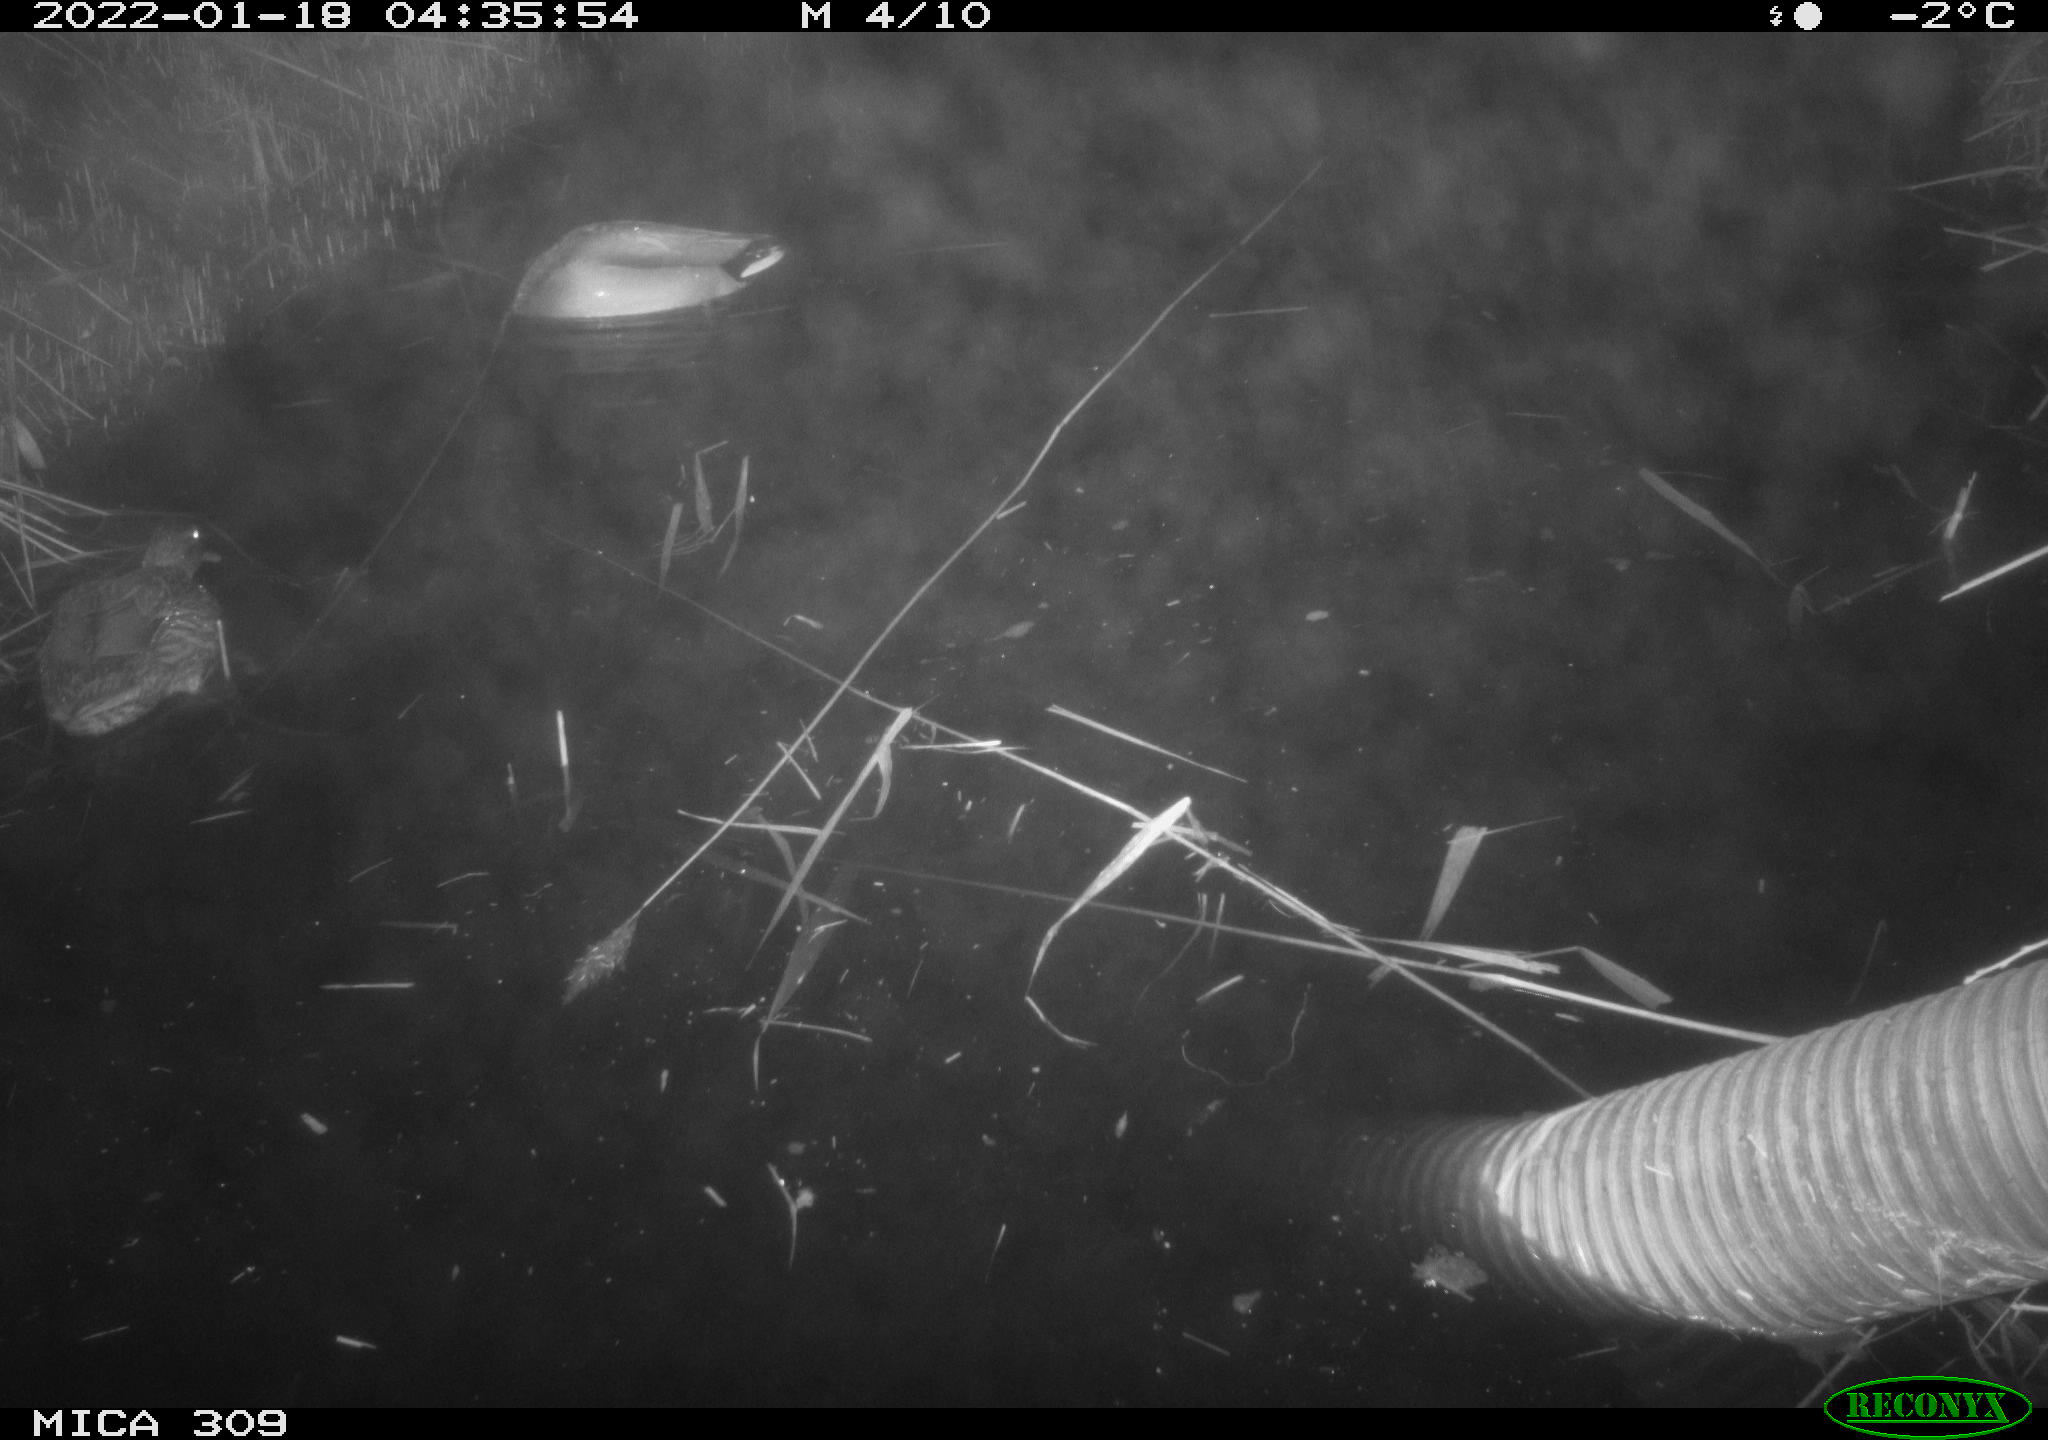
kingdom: Animalia
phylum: Chordata
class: Aves
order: Anseriformes
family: Anatidae
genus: Anas
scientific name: Anas
